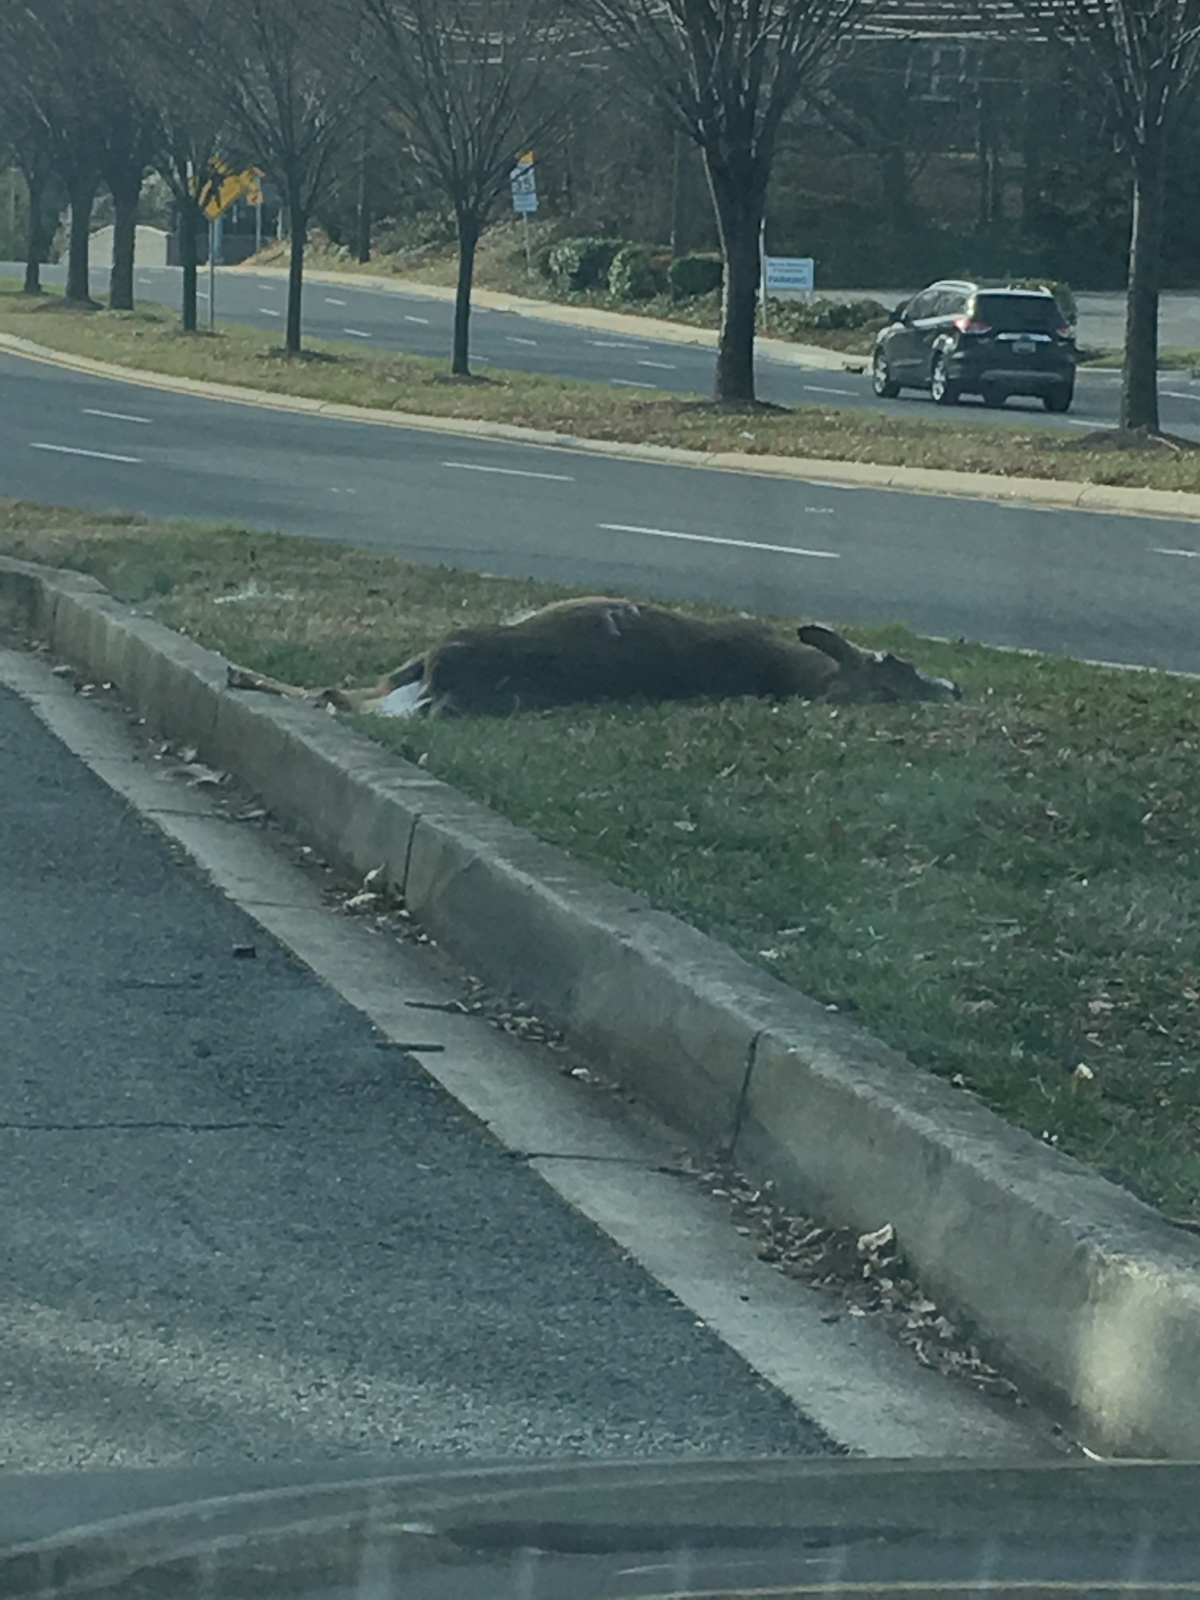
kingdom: Animalia
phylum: Chordata
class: Mammalia
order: Artiodactyla
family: Cervidae
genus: Odocoileus
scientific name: Odocoileus virginianus
